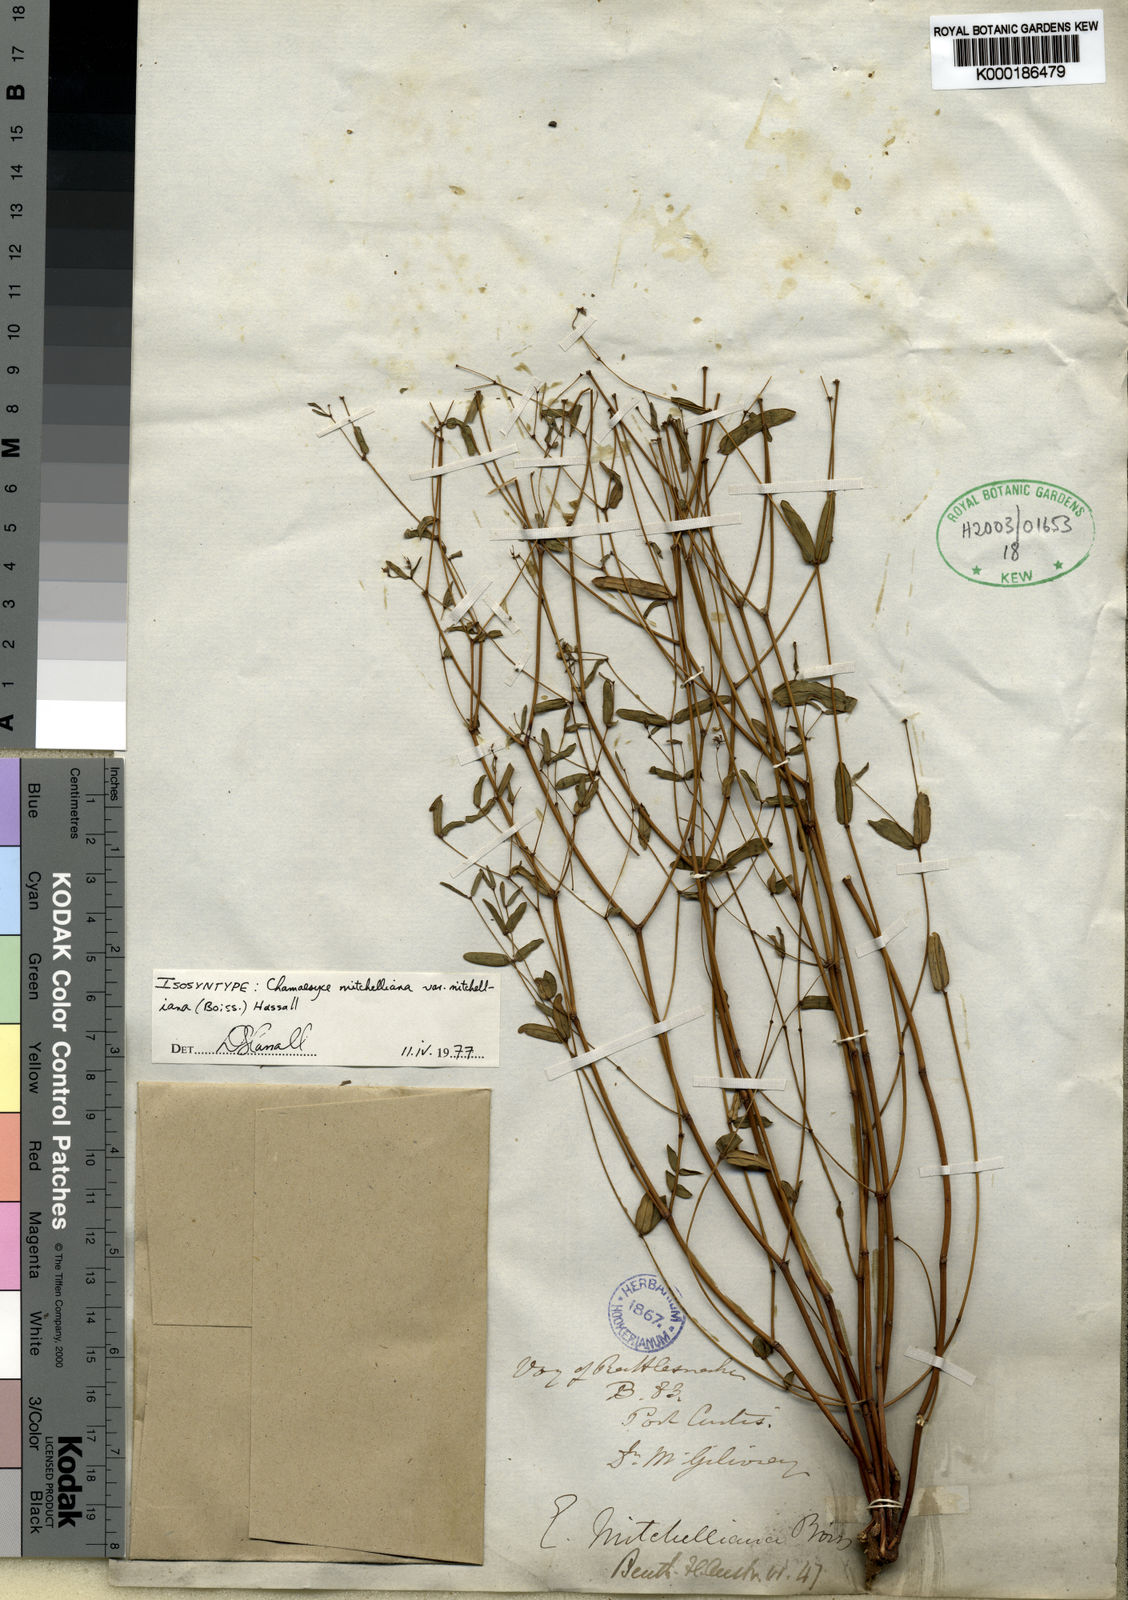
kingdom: Plantae
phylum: Tracheophyta
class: Magnoliopsida
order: Malpighiales
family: Euphorbiaceae
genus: Euphorbia
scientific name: Euphorbia mitchelliana
